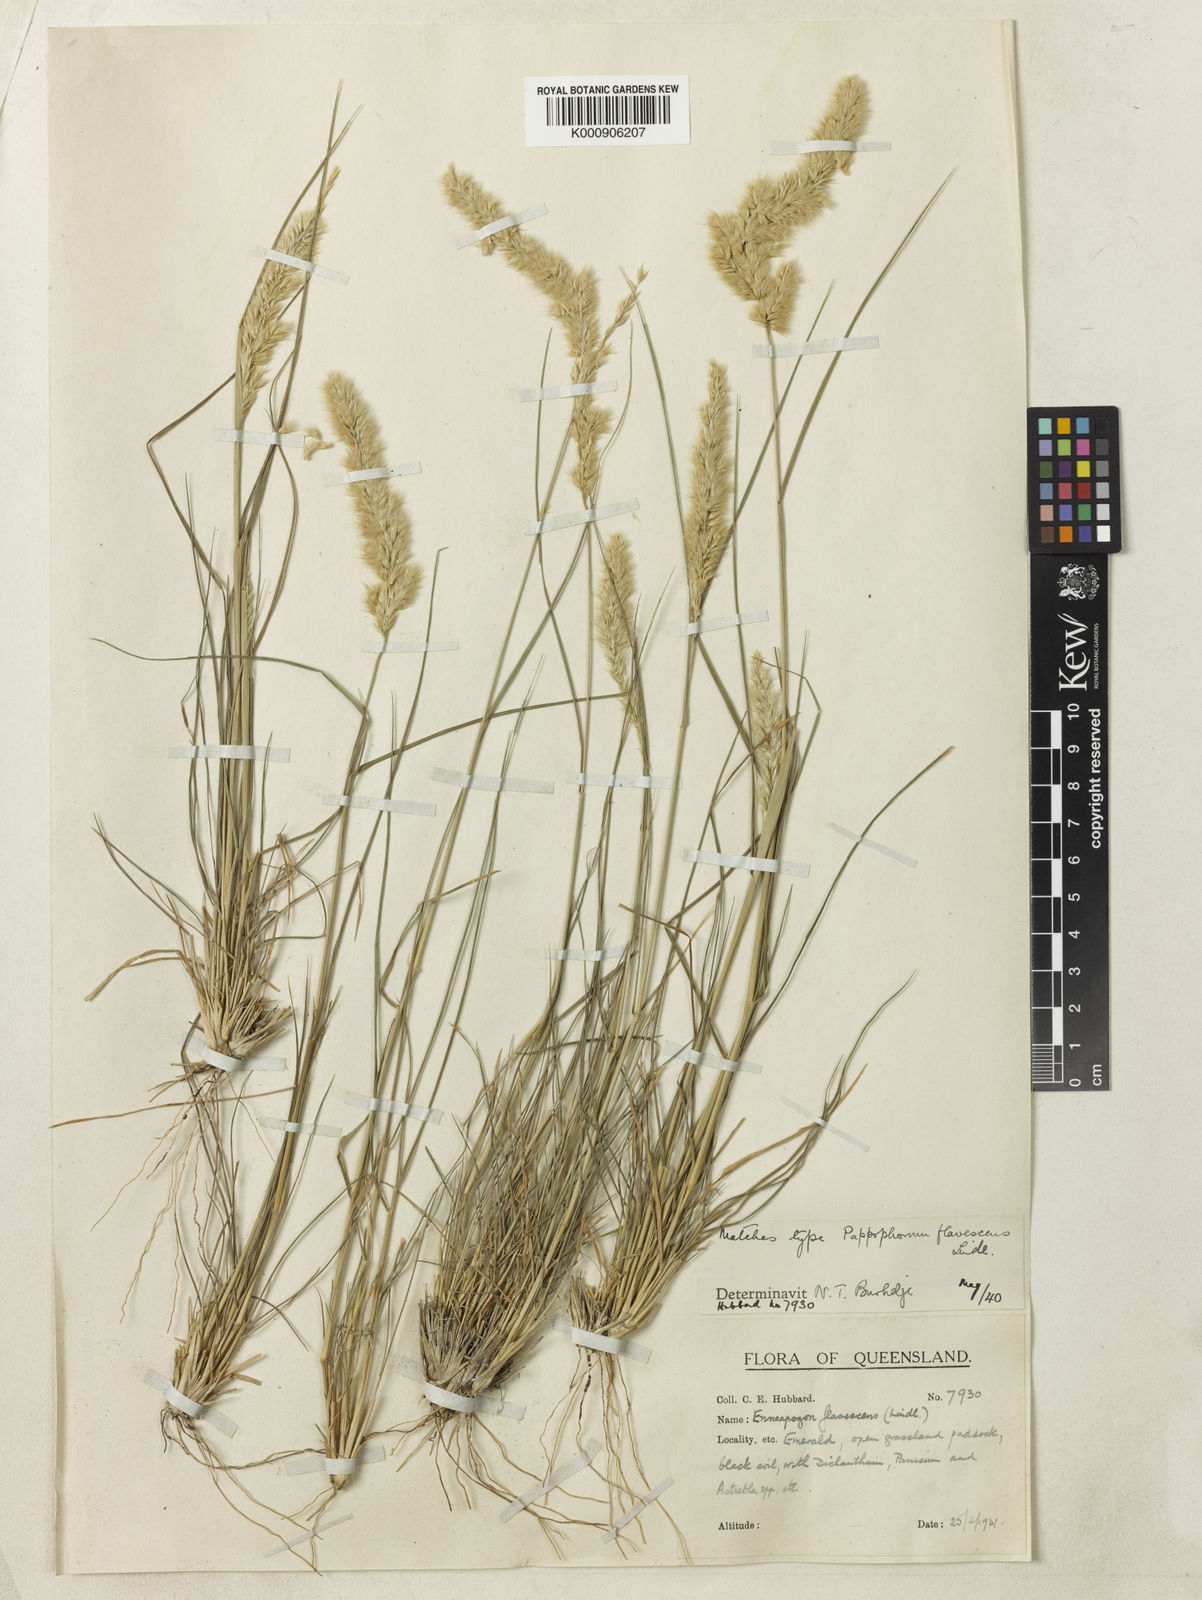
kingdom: Plantae
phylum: Tracheophyta
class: Liliopsida
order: Poales
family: Poaceae
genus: Enneapogon
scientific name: Enneapogon nigricans
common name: Pappus grass
